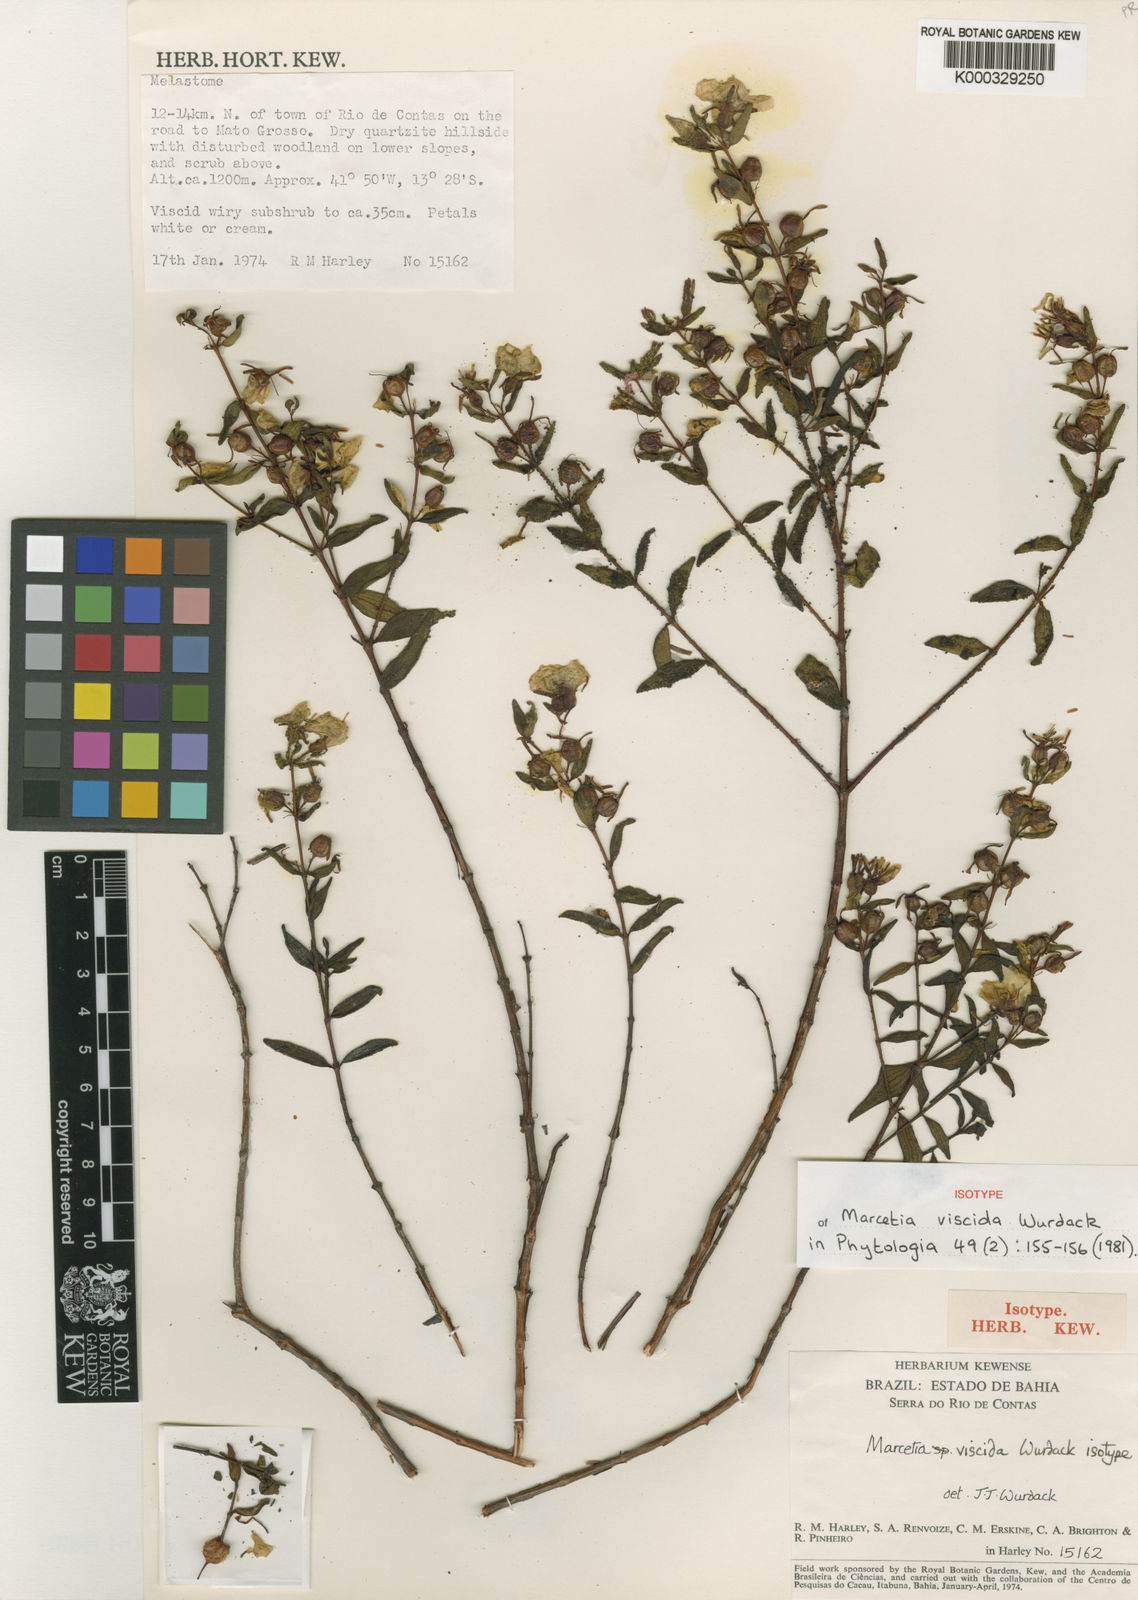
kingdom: Plantae
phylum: Tracheophyta
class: Magnoliopsida
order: Myrtales
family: Melastomataceae
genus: Marcetia
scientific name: Marcetia viscida
